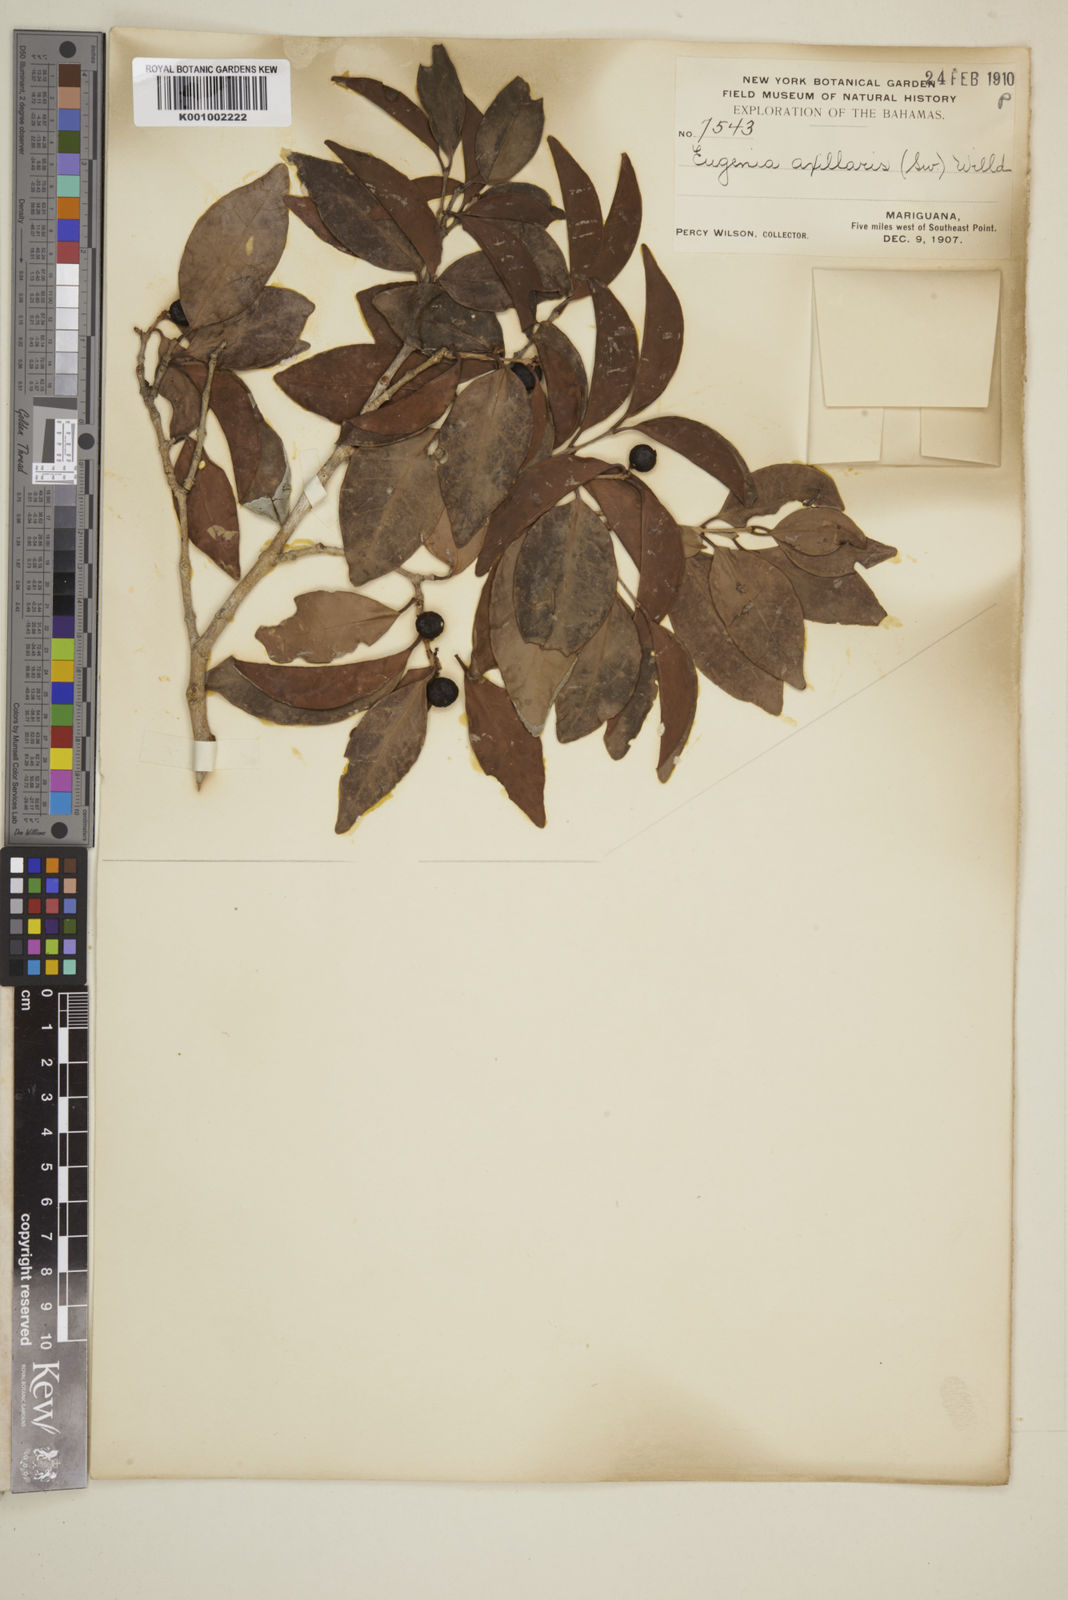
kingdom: Plantae
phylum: Tracheophyta
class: Magnoliopsida
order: Myrtales
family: Myrtaceae
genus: Eugenia
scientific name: Eugenia axillaris
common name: Choaky berry
